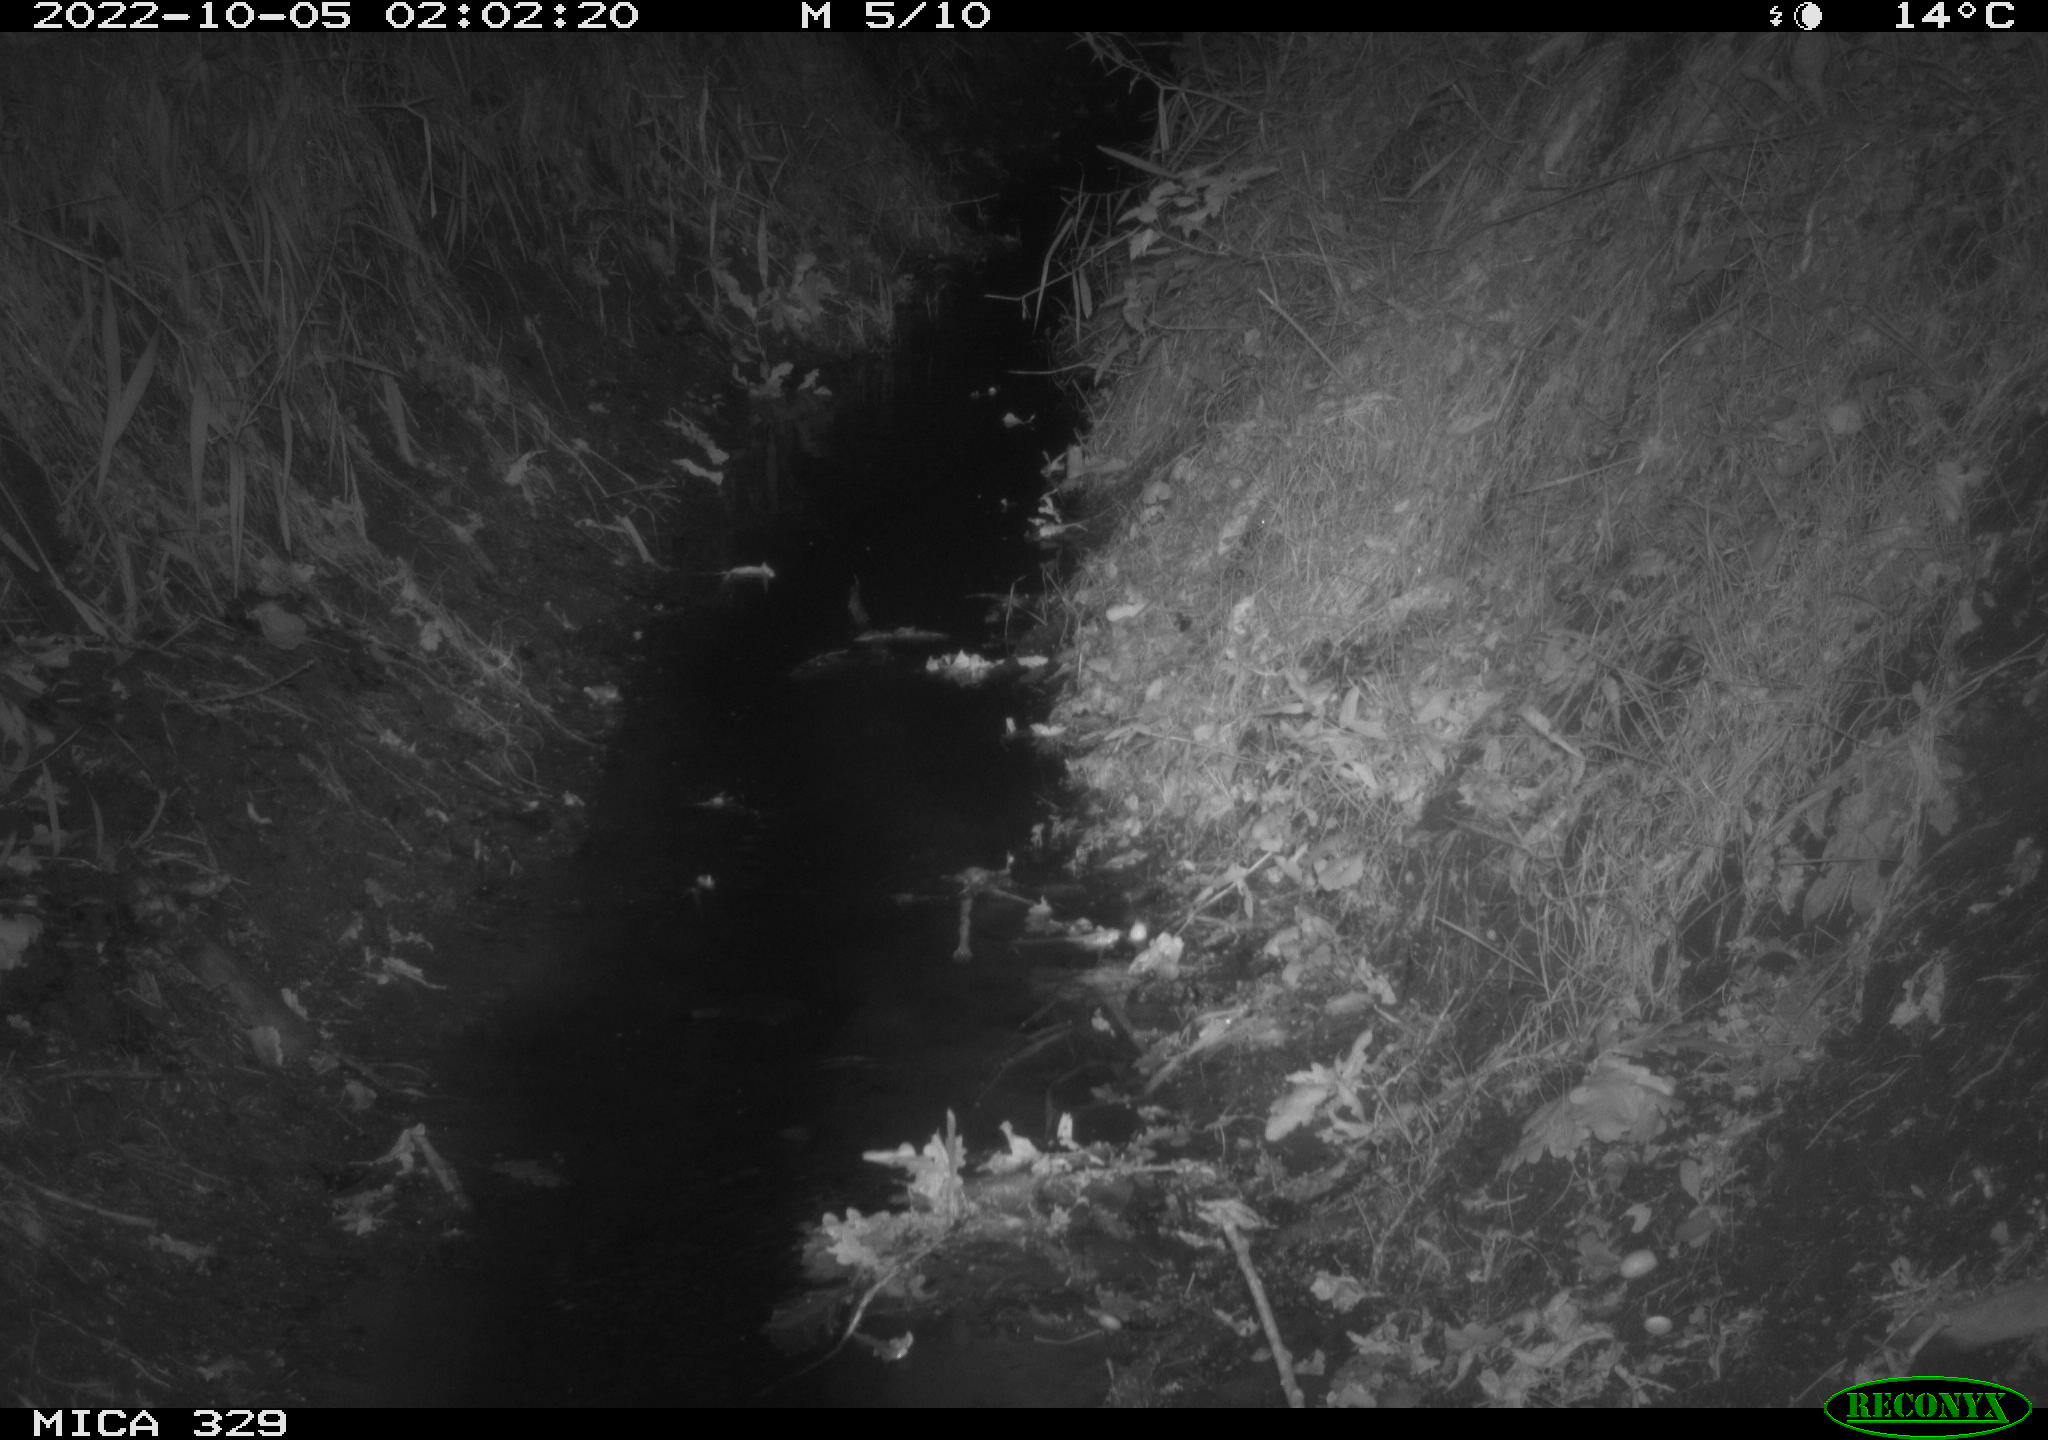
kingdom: Animalia
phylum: Chordata
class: Mammalia
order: Rodentia
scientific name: Rodentia
